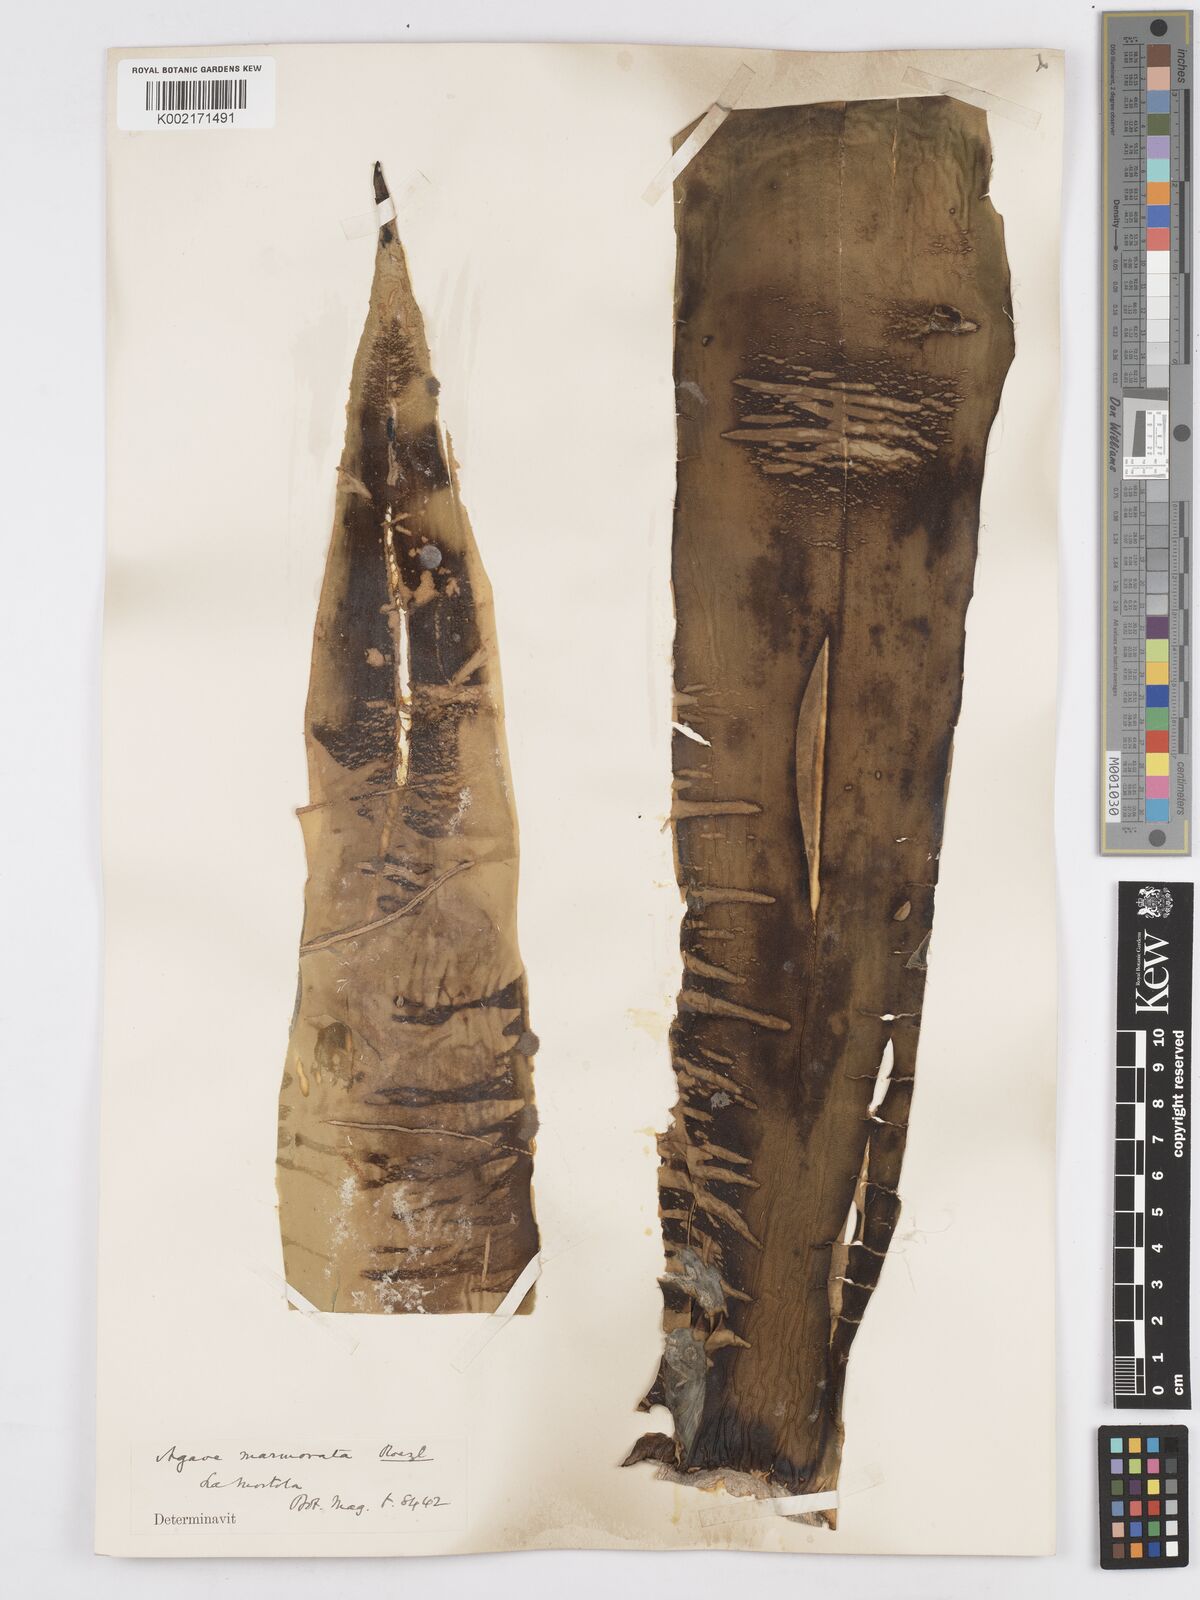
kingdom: Plantae
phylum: Tracheophyta
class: Liliopsida
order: Asparagales
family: Asparagaceae
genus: Agave
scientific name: Agave marmorata
